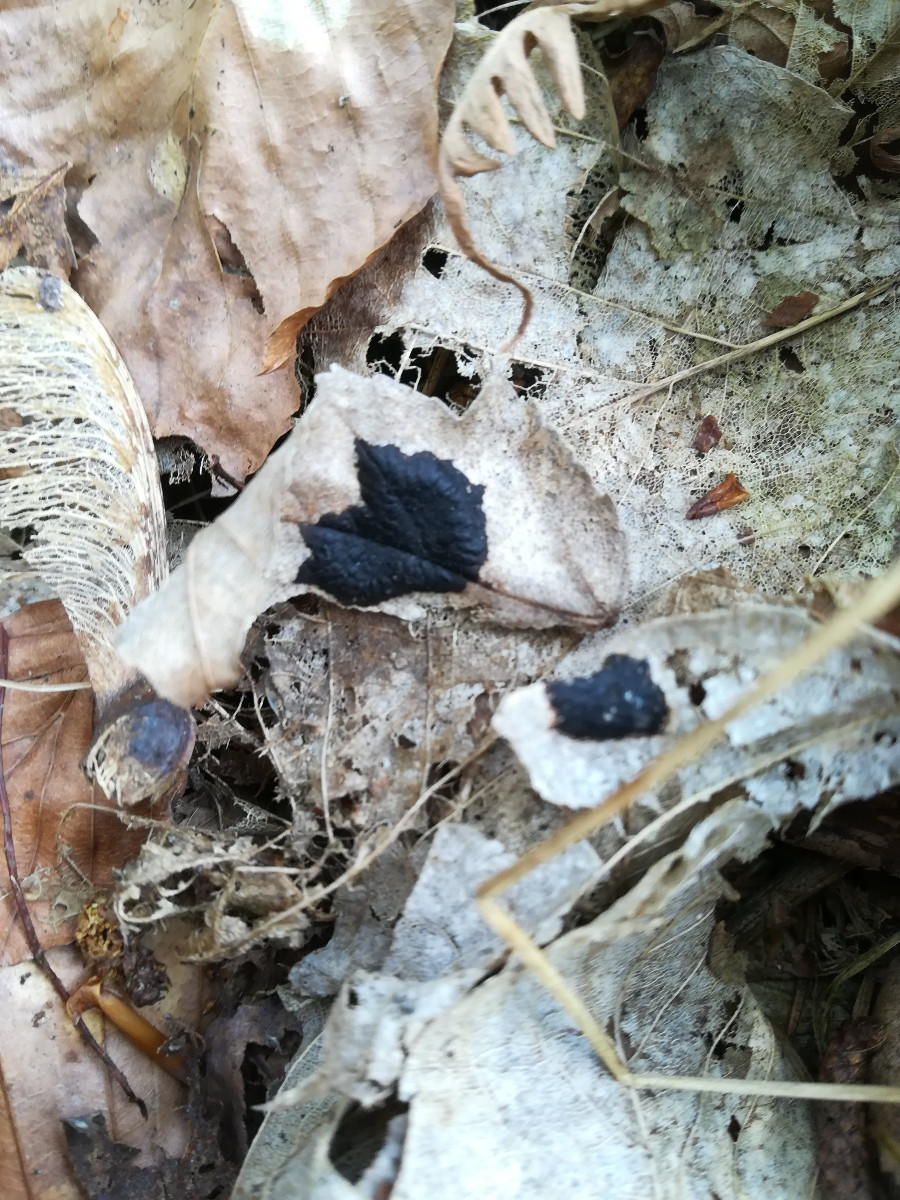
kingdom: Fungi
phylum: Ascomycota
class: Leotiomycetes
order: Rhytismatales
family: Rhytismataceae
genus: Rhytisma
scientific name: Rhytisma acerinum
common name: ahorn-rynkeplet
